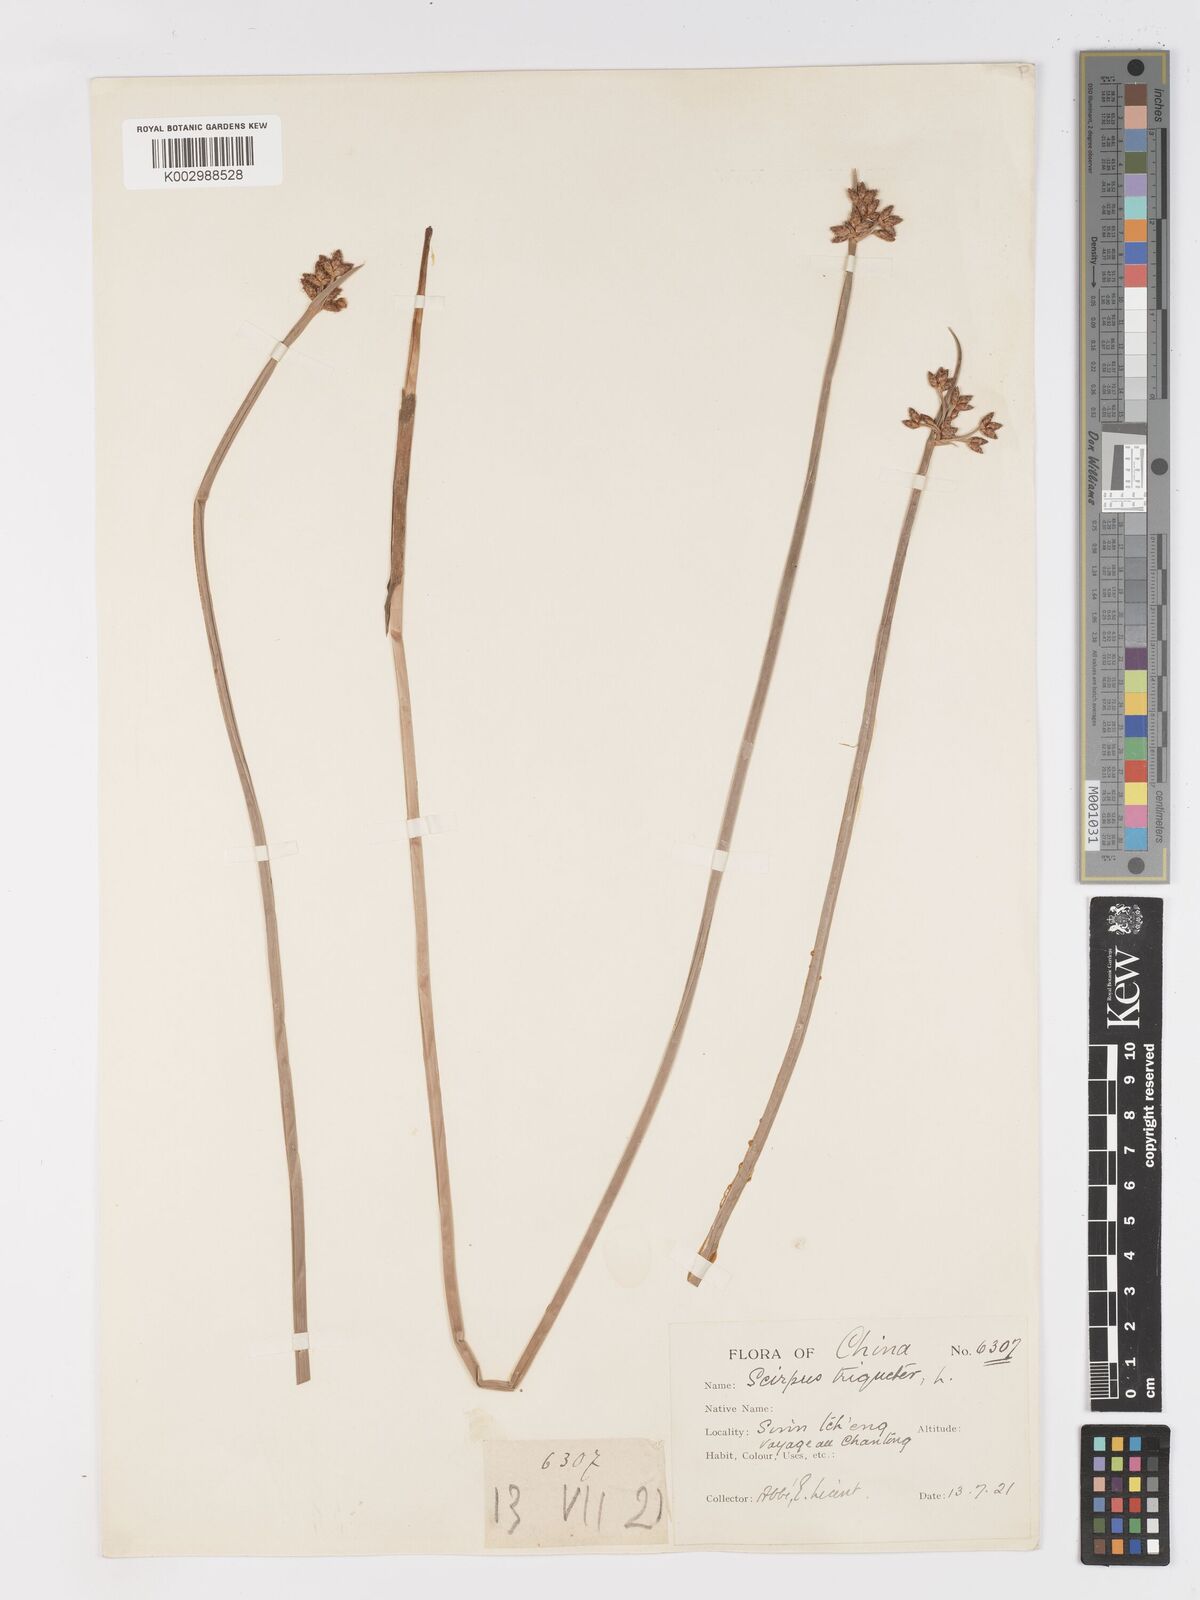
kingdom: Plantae
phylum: Tracheophyta
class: Liliopsida
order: Poales
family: Cyperaceae
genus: Schoenoplectus
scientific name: Schoenoplectus triqueter
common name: Triangular club-rush
